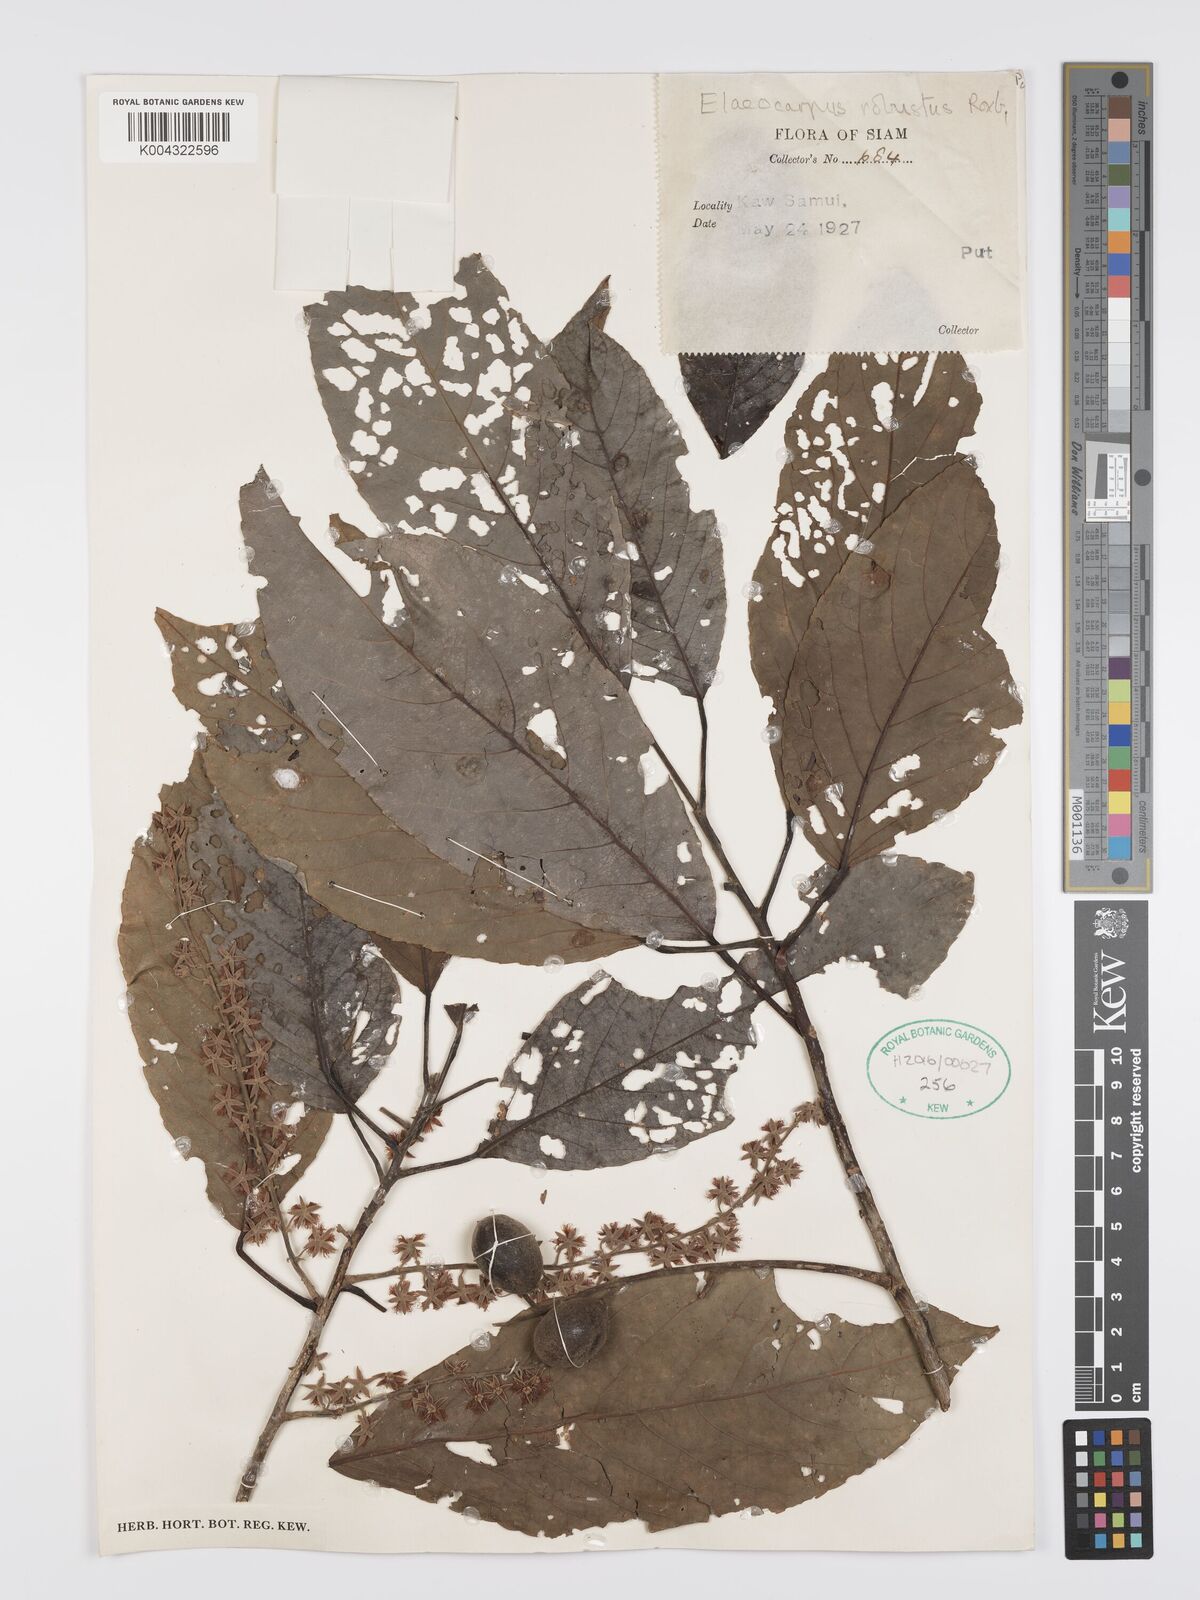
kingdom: Plantae
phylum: Tracheophyta
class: Magnoliopsida
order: Oxalidales
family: Elaeocarpaceae
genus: Elaeocarpus
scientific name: Elaeocarpus robustus
